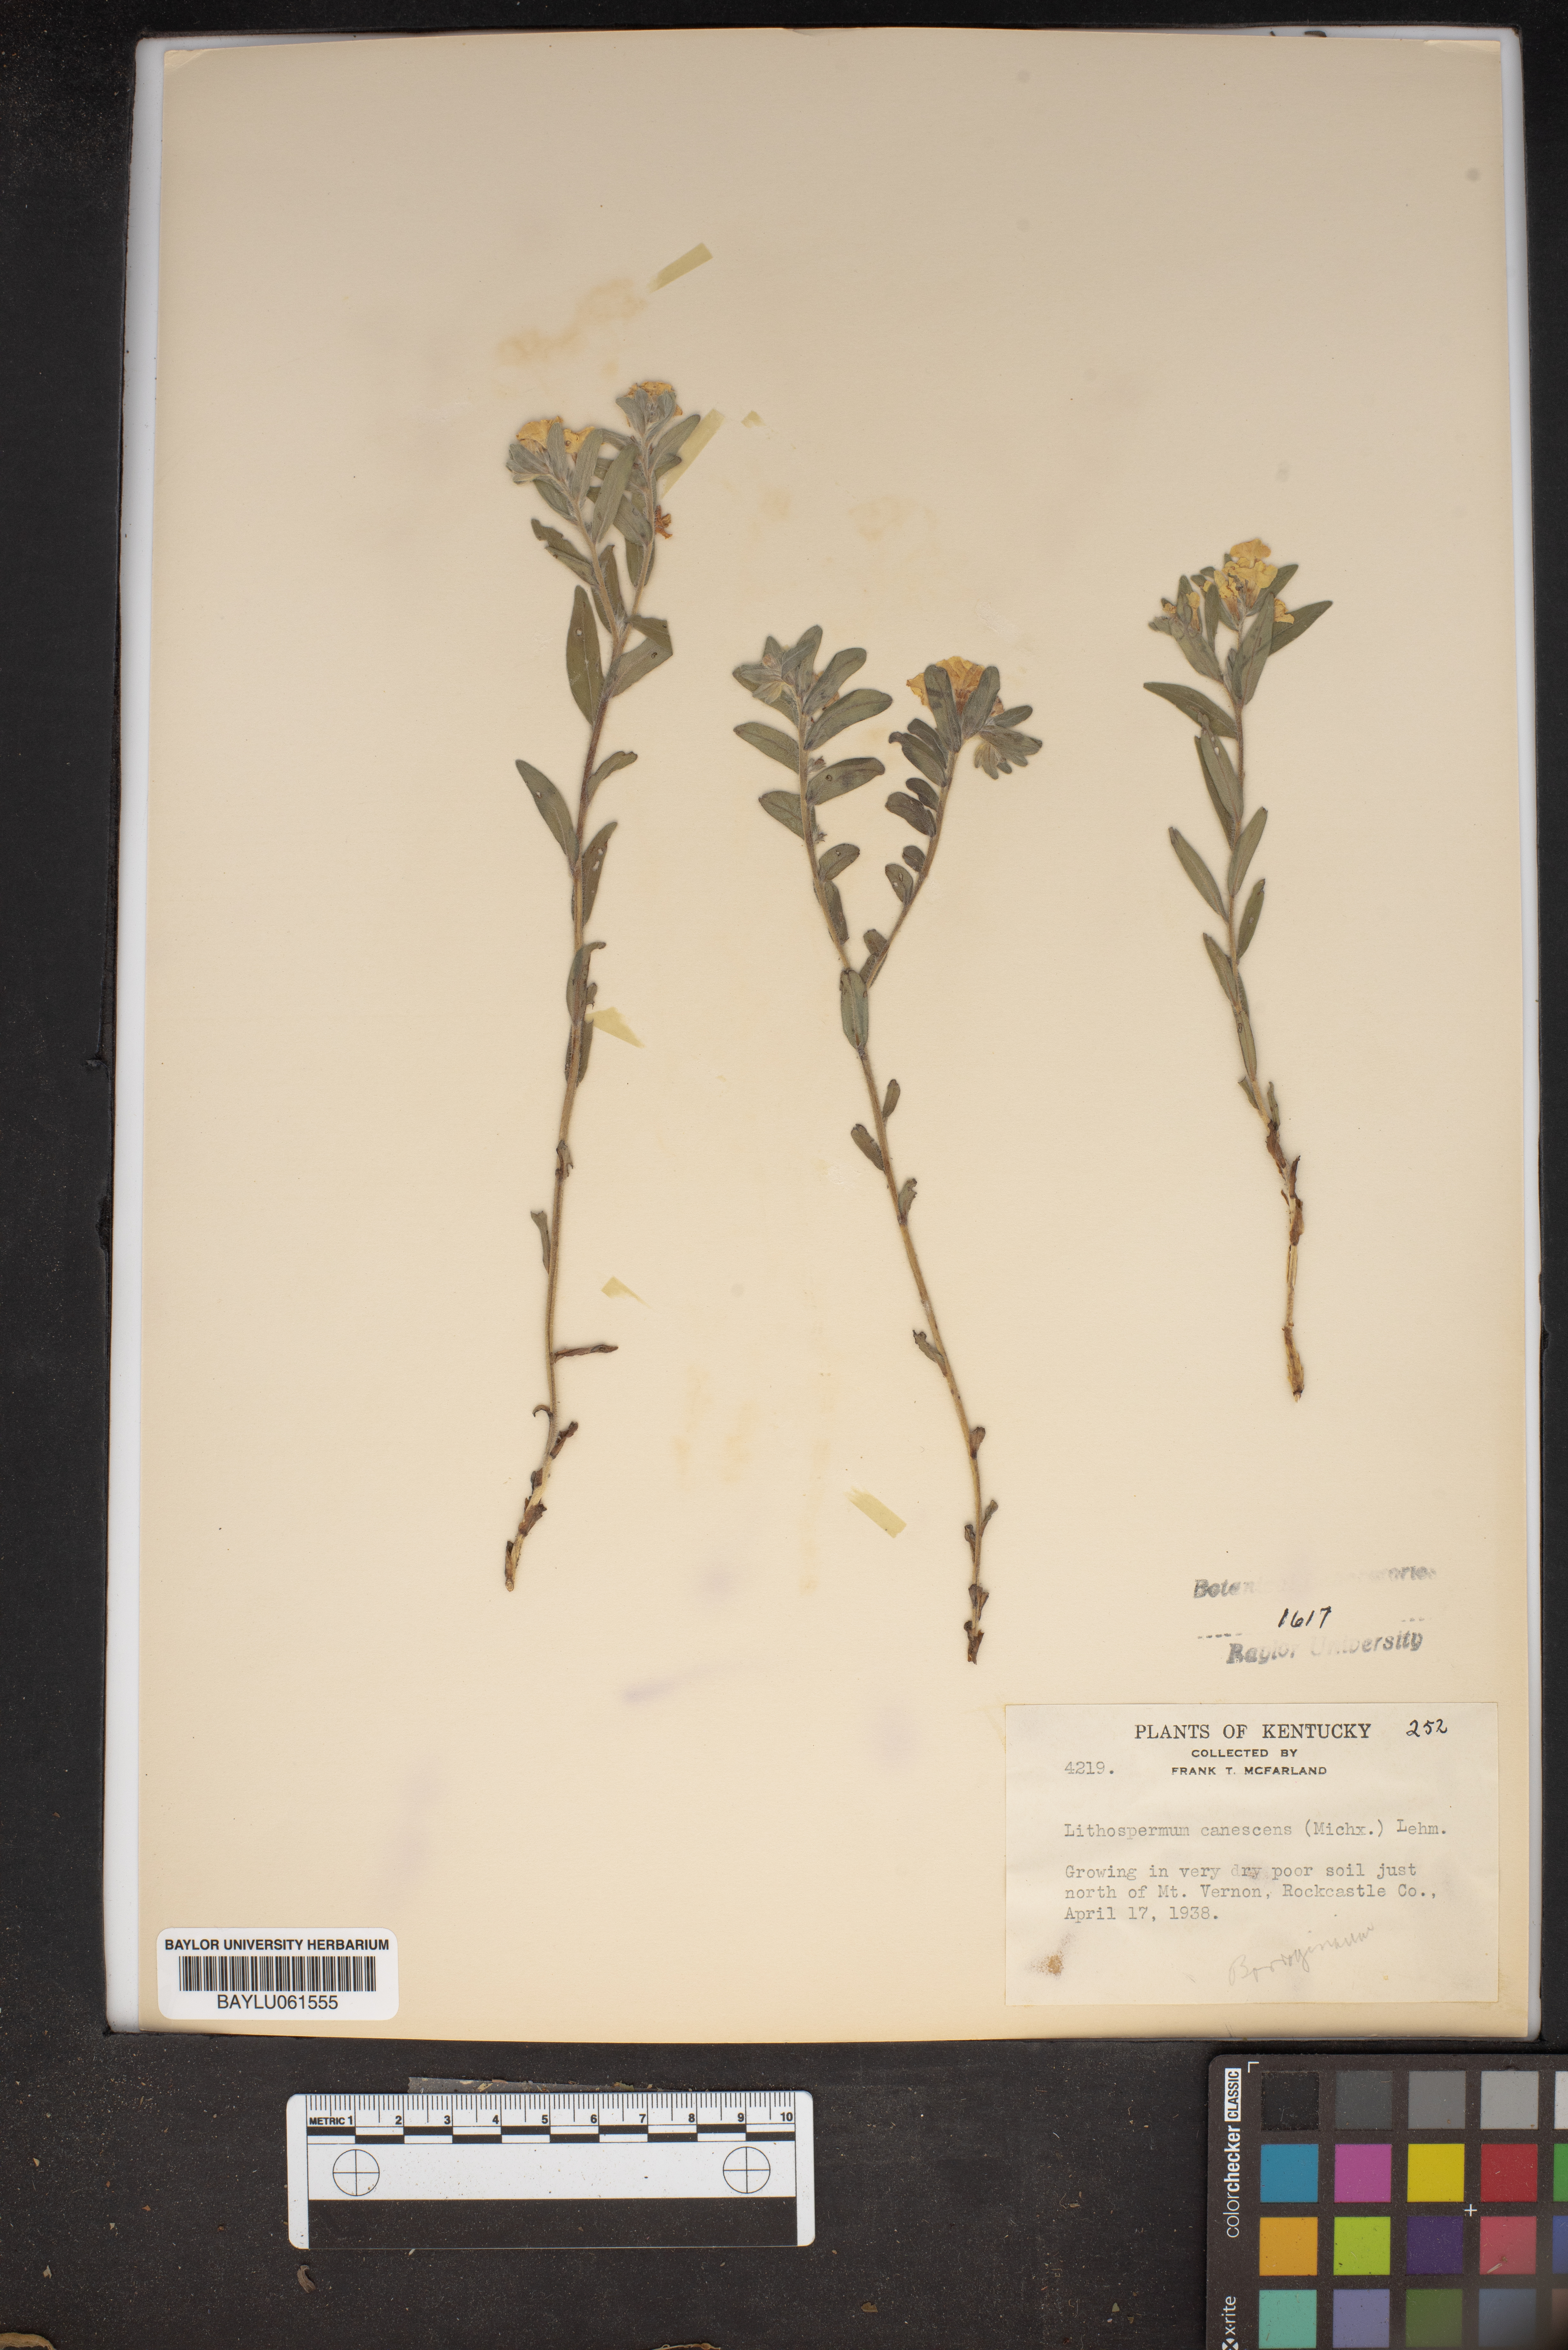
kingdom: Plantae
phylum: Tracheophyta
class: Magnoliopsida
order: Boraginales
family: Boraginaceae
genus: Lithospermum
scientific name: Lithospermum canescens
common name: Hoary puccoon
